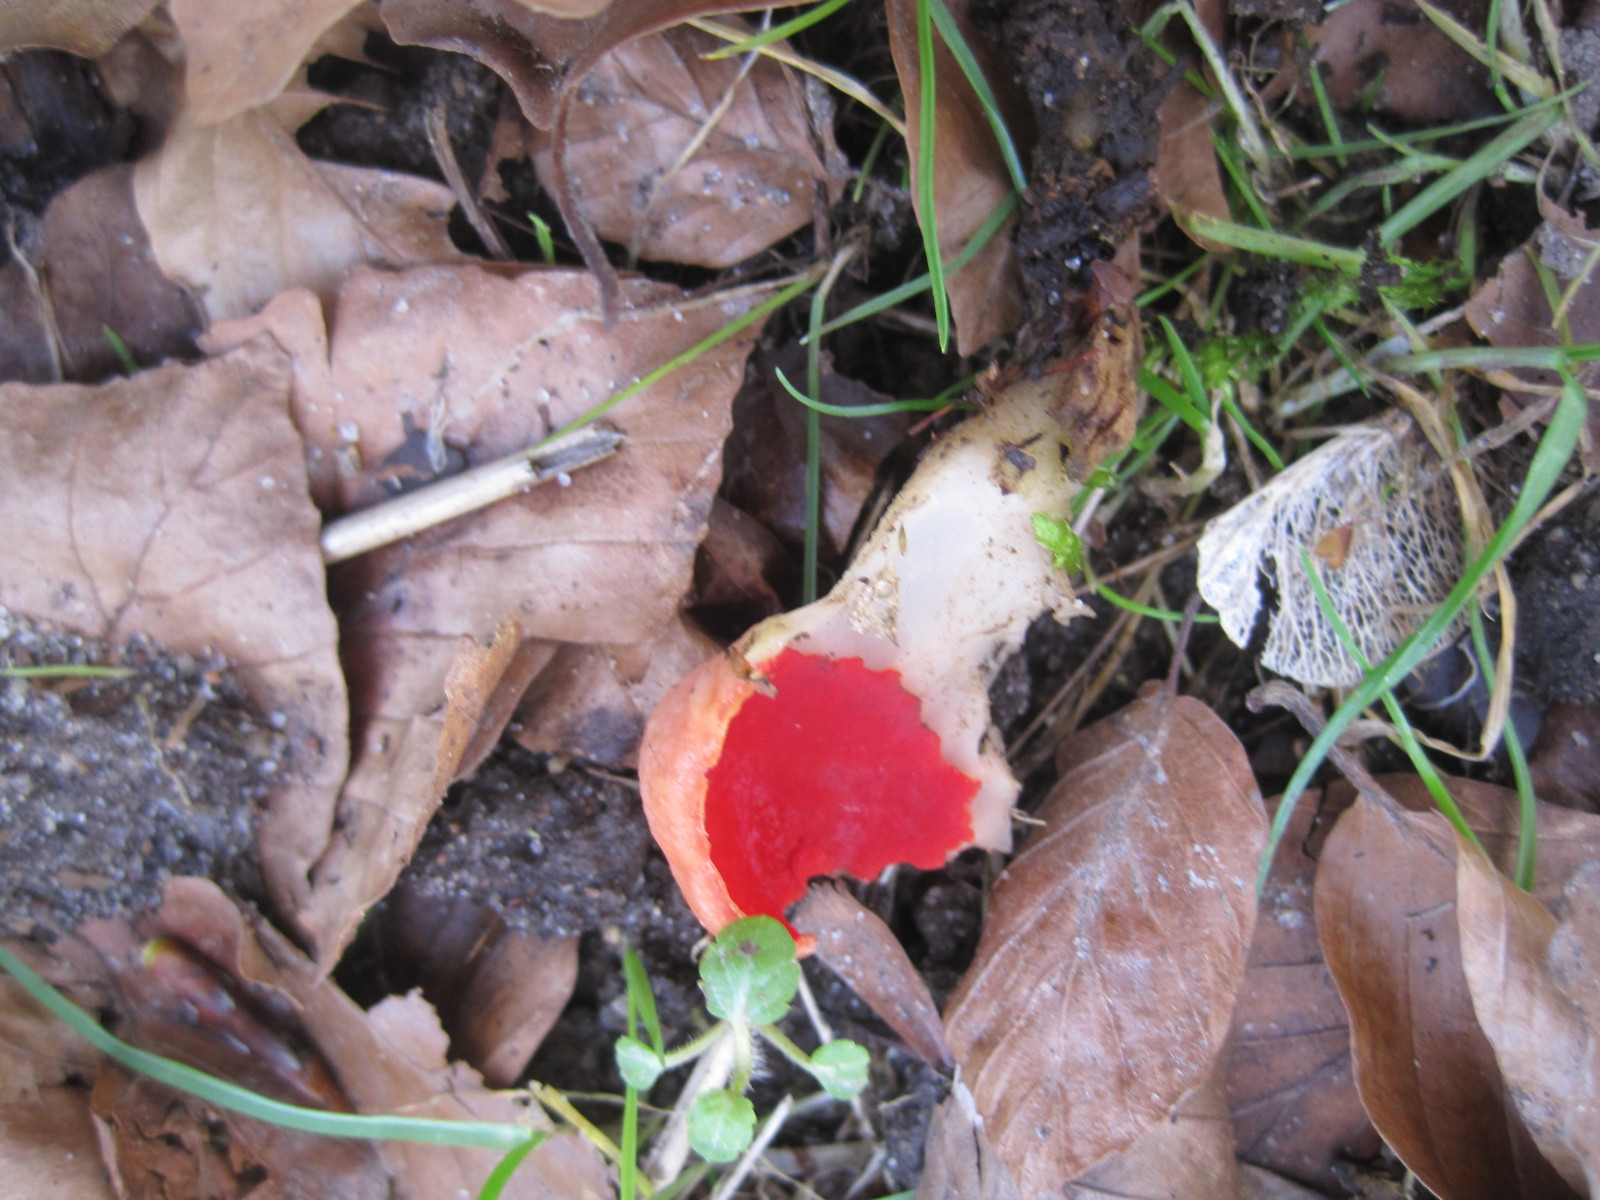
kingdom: Fungi
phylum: Ascomycota
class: Pezizomycetes
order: Pezizales
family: Sarcoscyphaceae
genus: Sarcoscypha
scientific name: Sarcoscypha austriaca
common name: krølhåret pragtbæger
